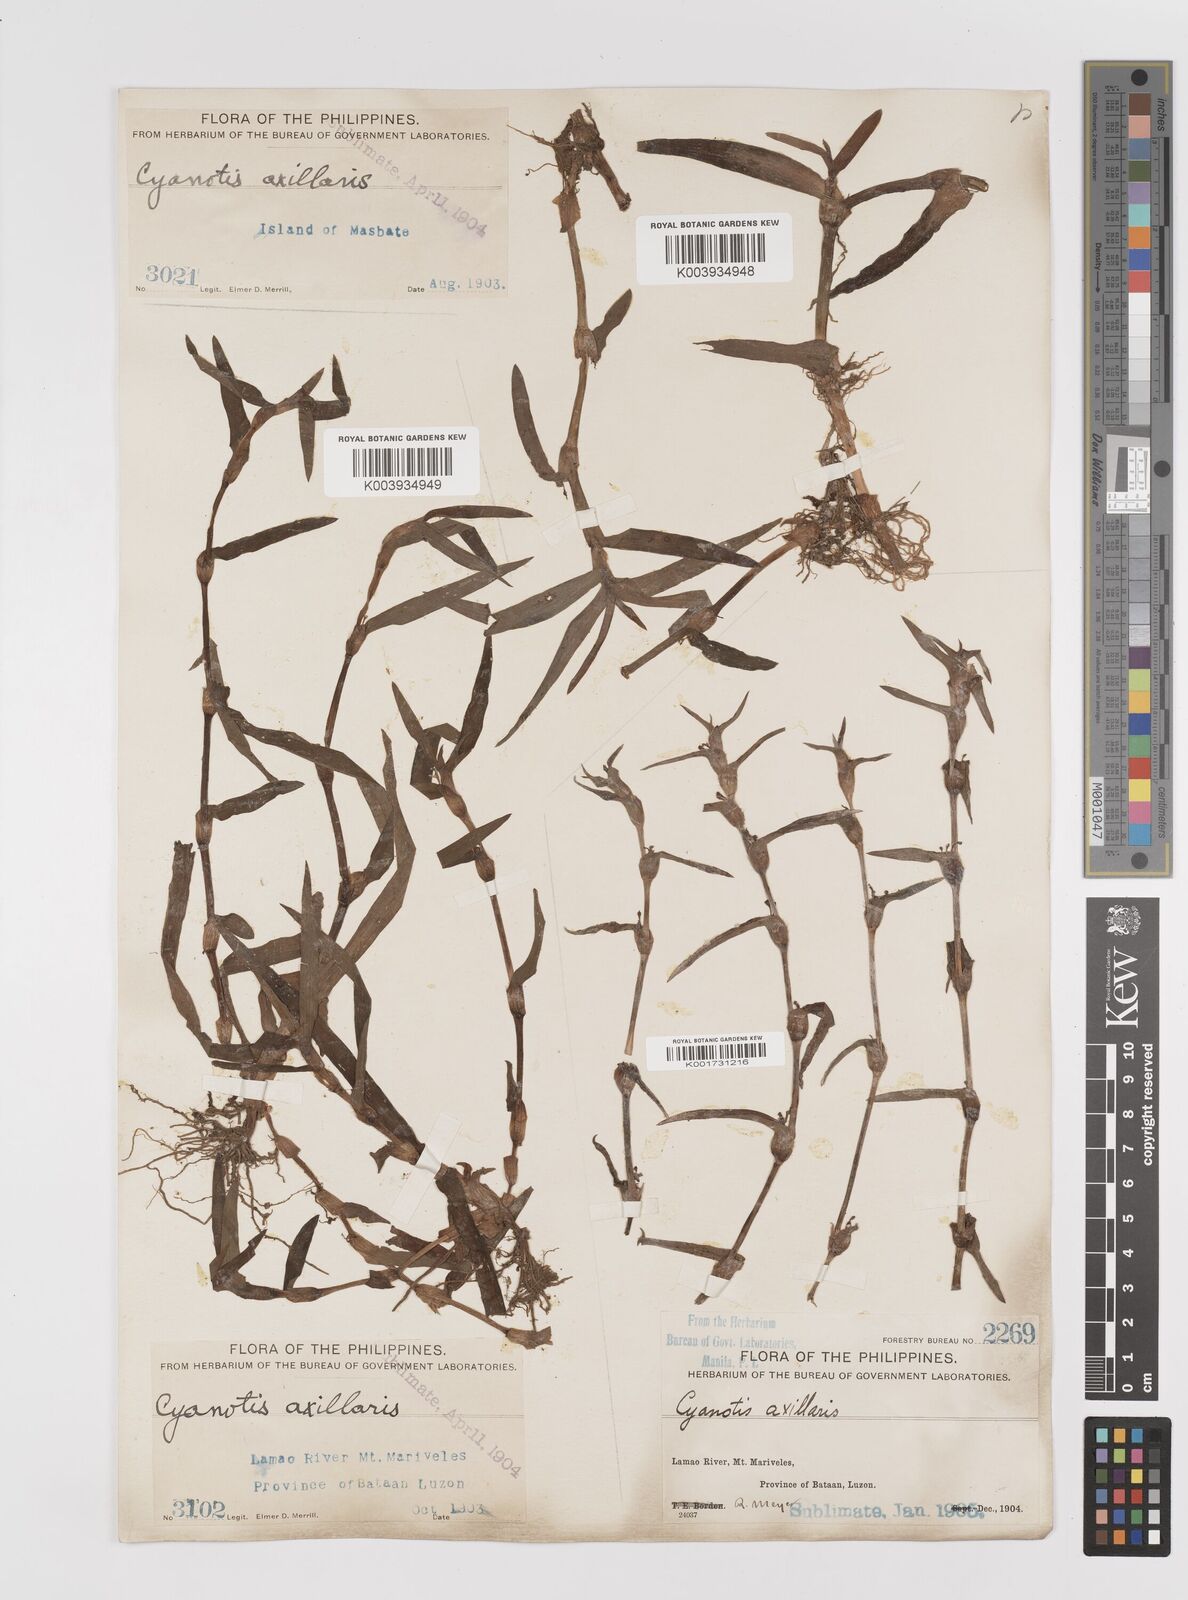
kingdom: Plantae
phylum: Tracheophyta
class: Liliopsida
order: Commelinales
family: Commelinaceae
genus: Cyanotis
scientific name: Cyanotis axillaris
